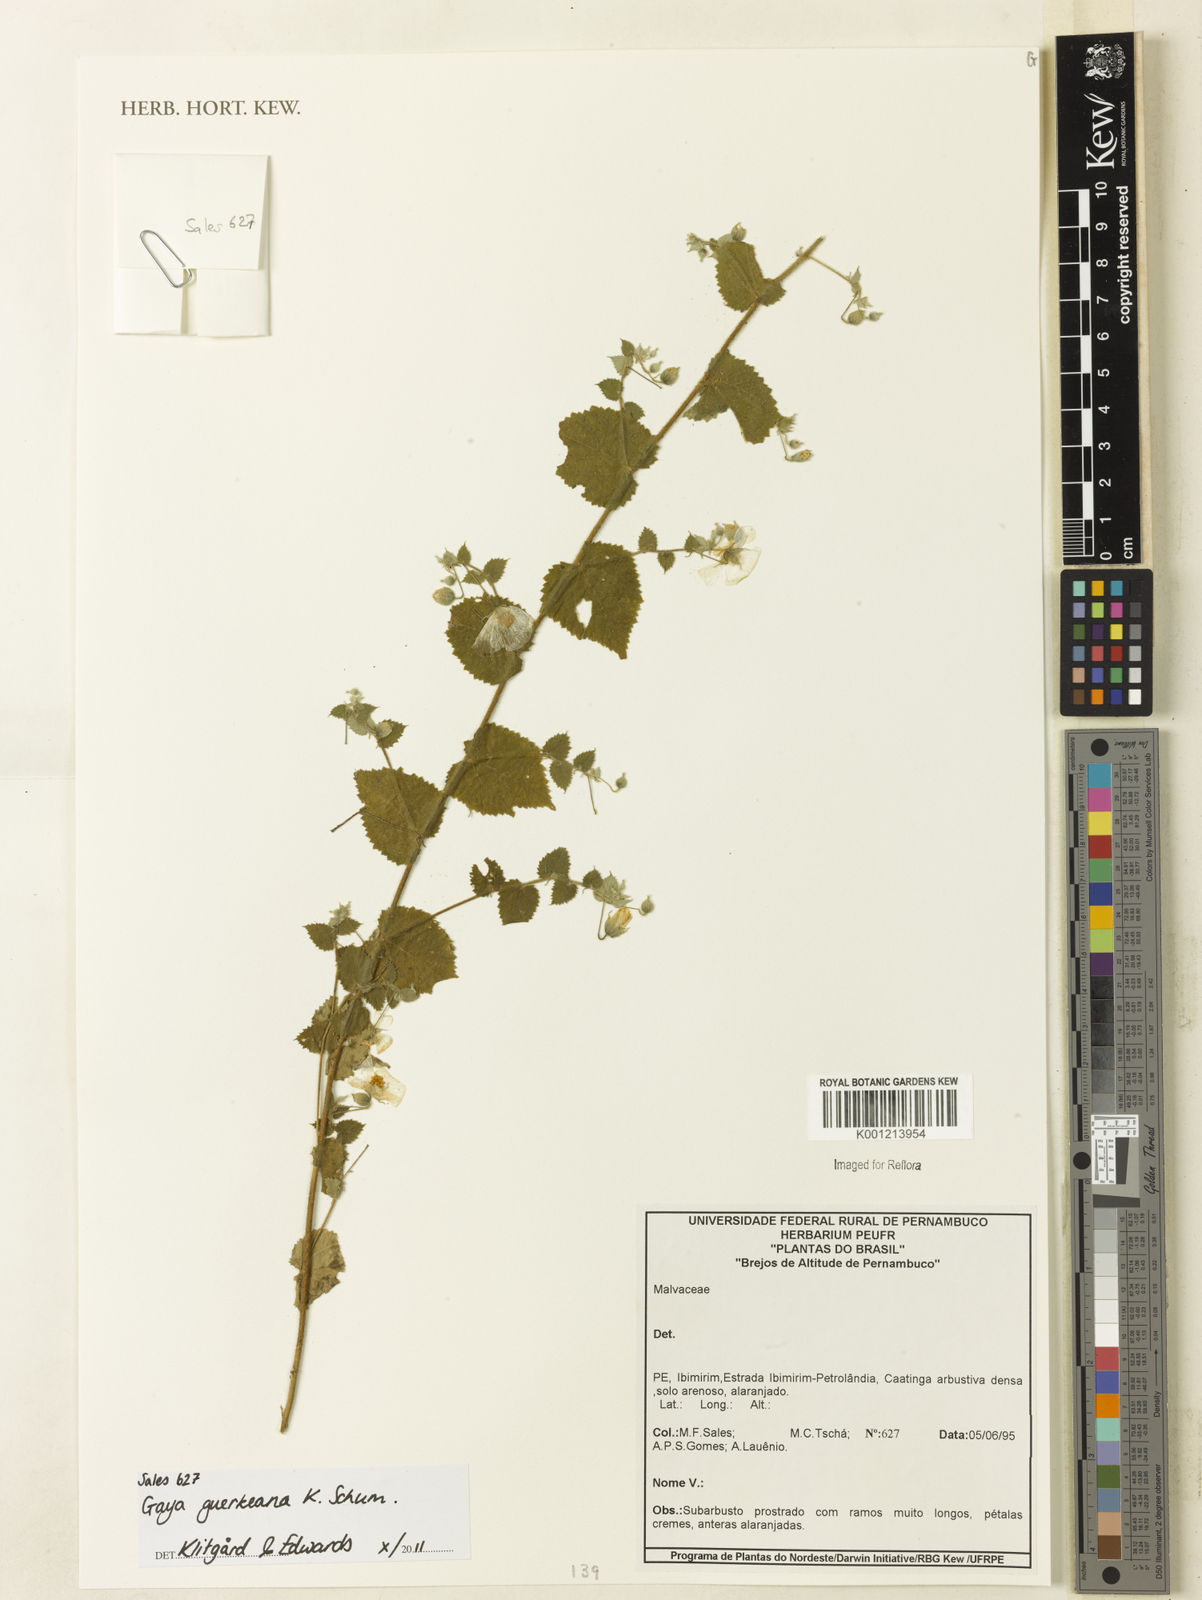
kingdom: Plantae
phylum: Tracheophyta
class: Magnoliopsida
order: Malvales
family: Malvaceae
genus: Gaya
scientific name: Gaya guerkeana
